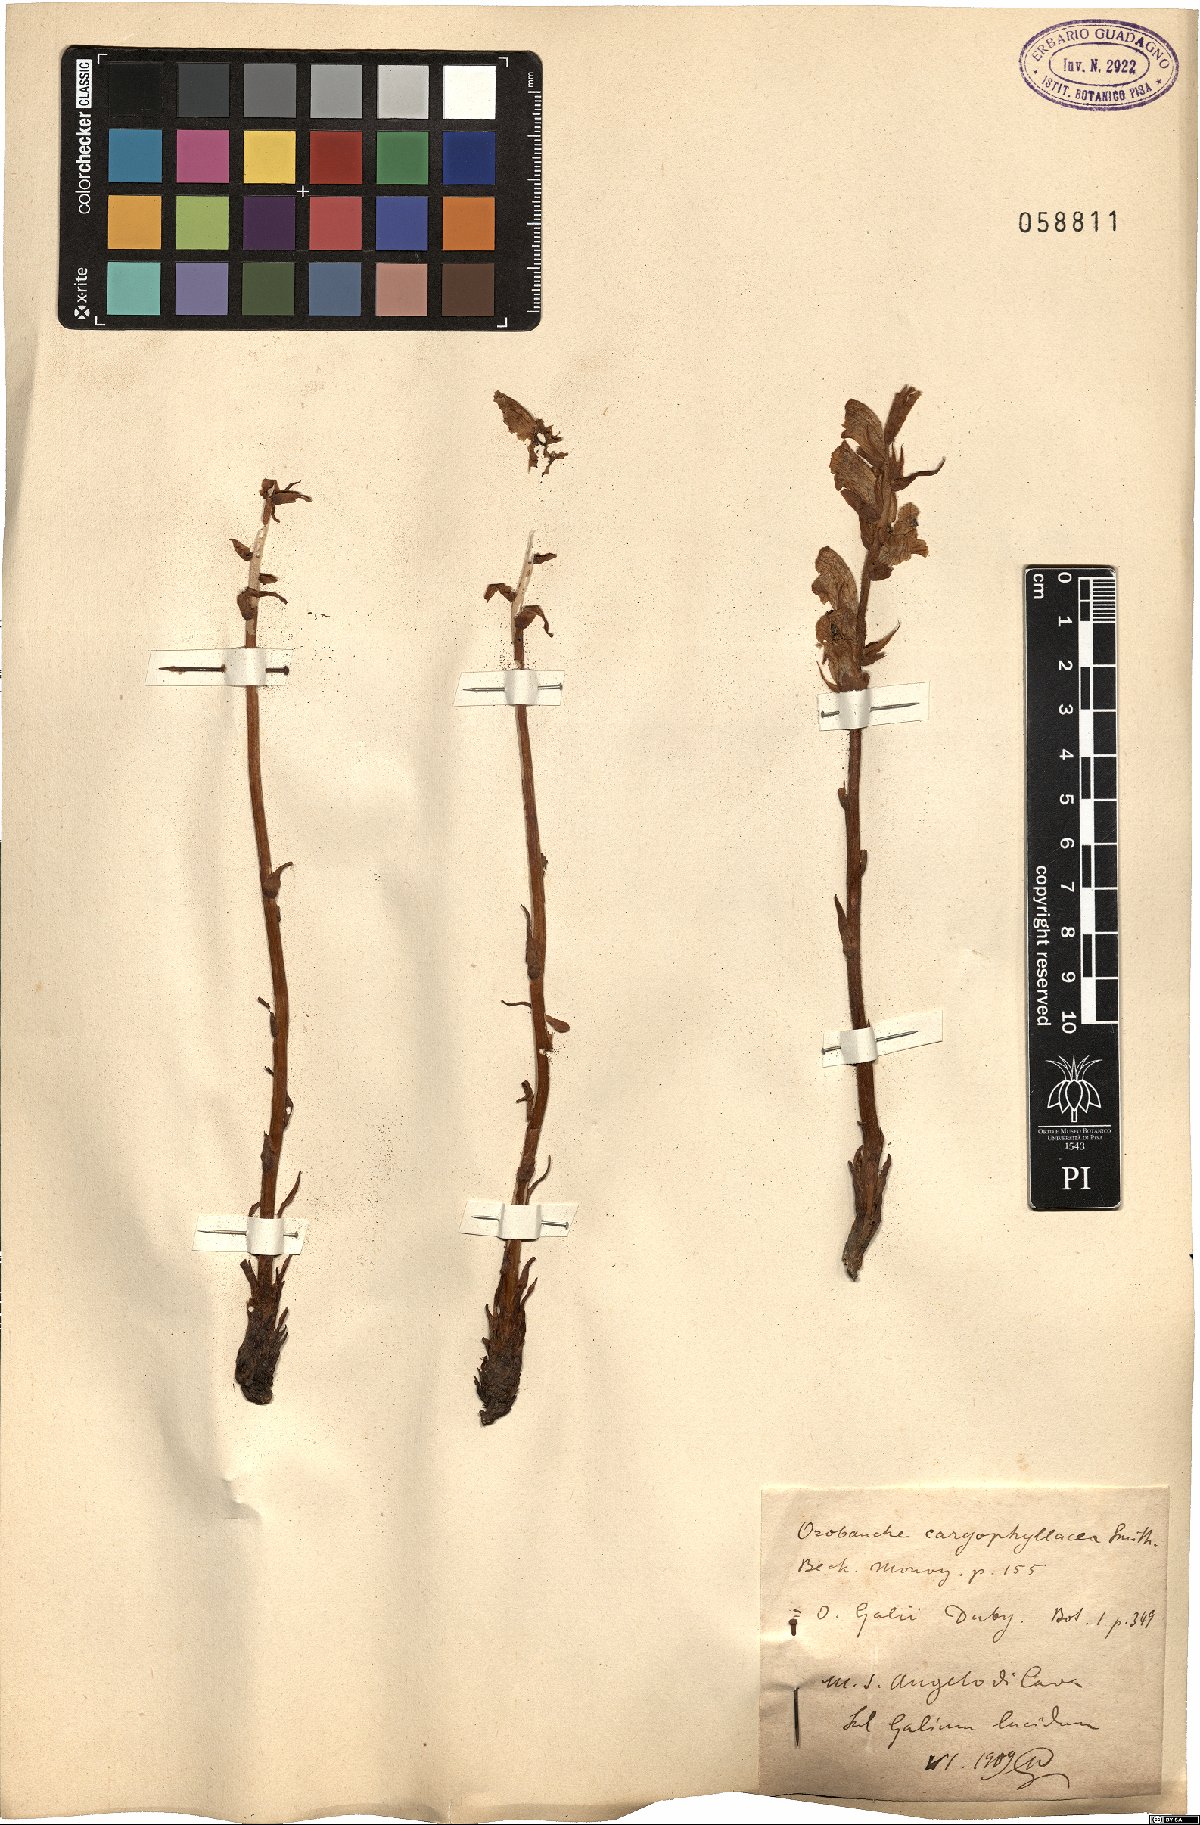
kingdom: Plantae
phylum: Tracheophyta
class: Magnoliopsida
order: Lamiales
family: Orobanchaceae
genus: Orobanche
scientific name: Orobanche caryophyllacea
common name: Bedstraw broomrape
